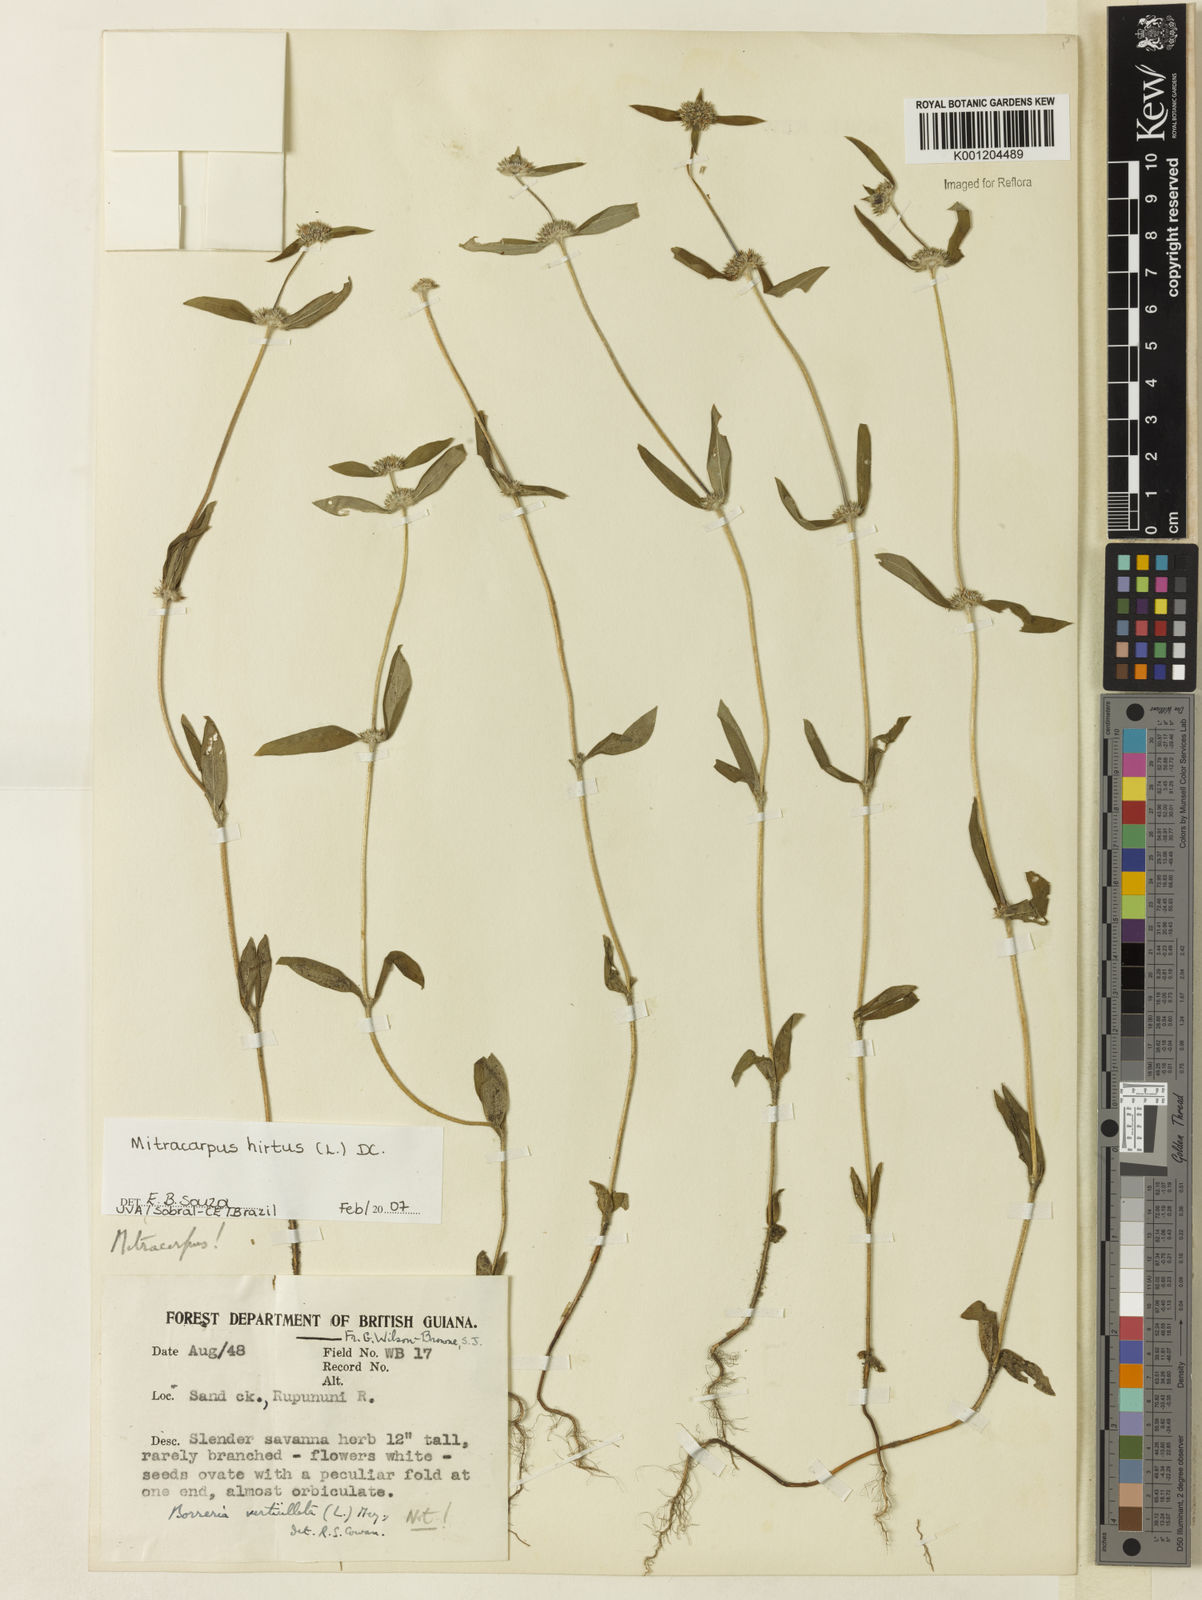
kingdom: Plantae
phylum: Tracheophyta
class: Magnoliopsida
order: Gentianales
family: Rubiaceae
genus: Mitracarpus
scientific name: Mitracarpus hirtus
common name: Tropical girdlepod
